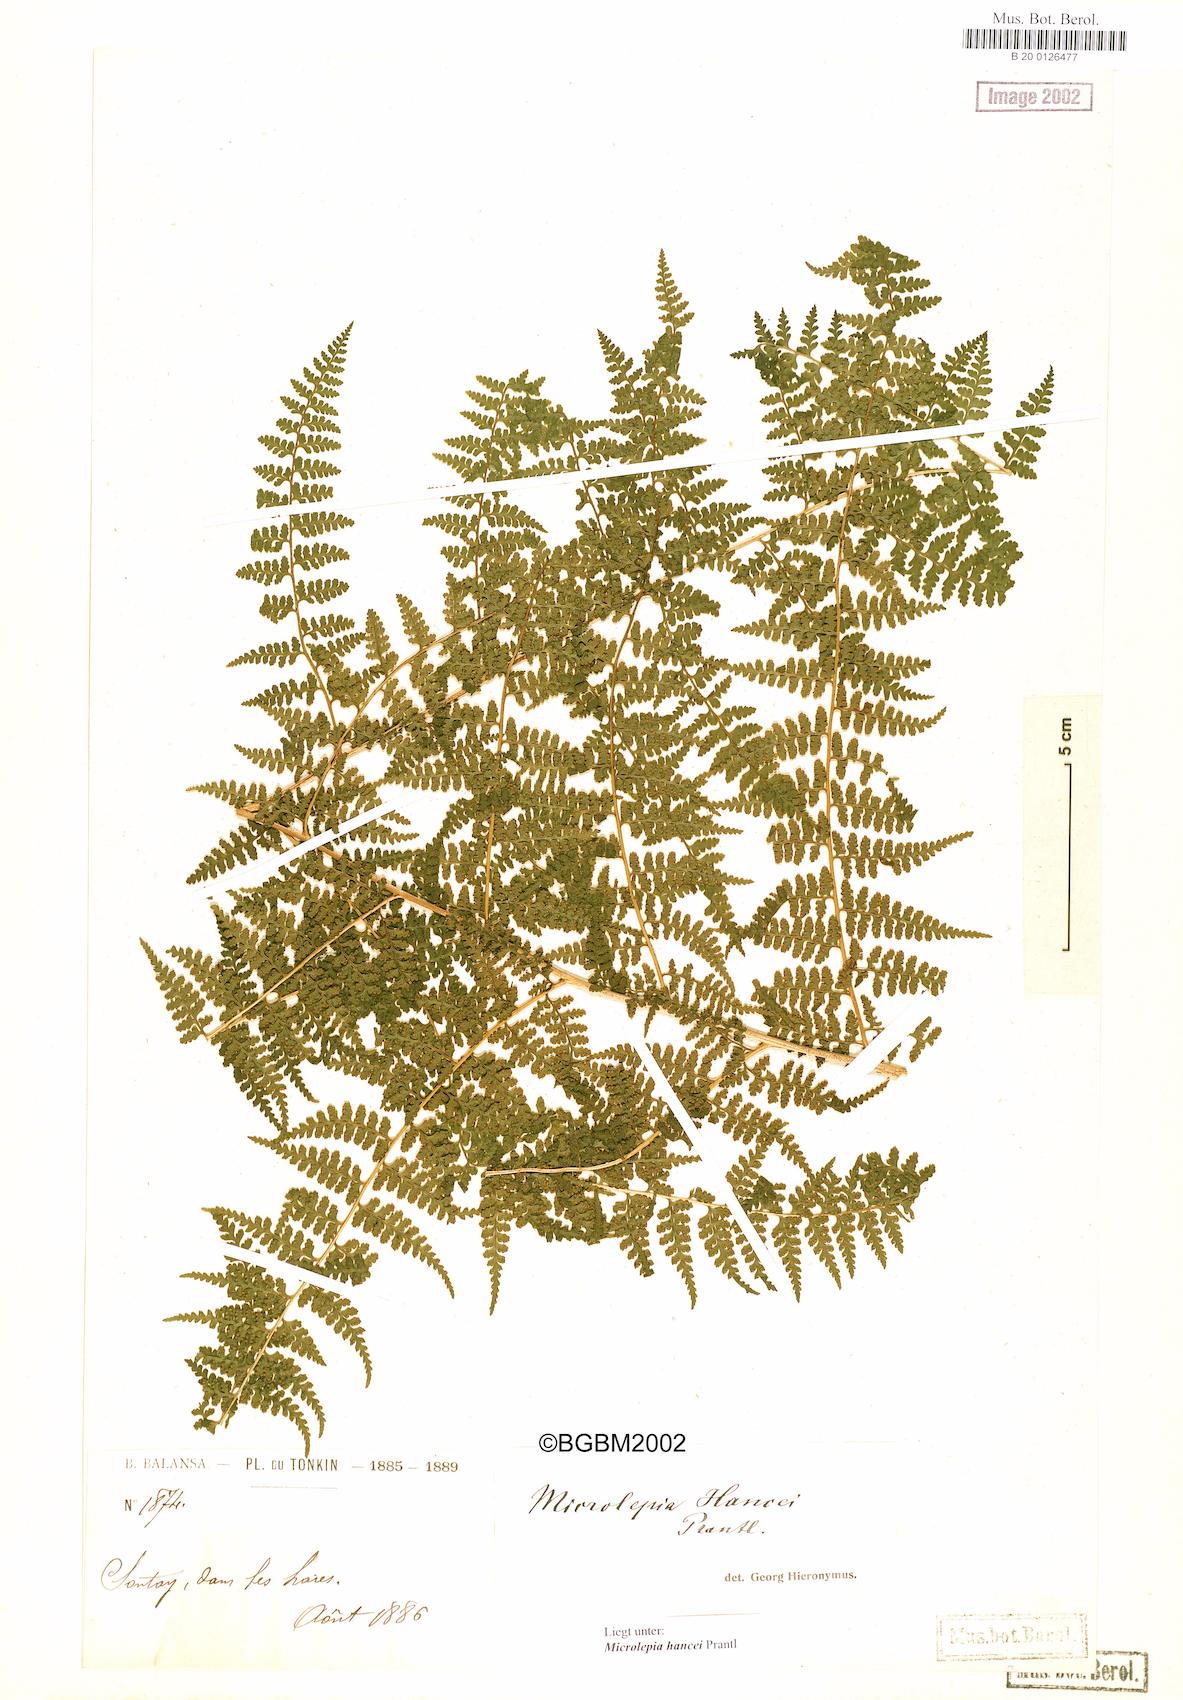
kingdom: Plantae
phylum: Tracheophyta
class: Polypodiopsida
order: Polypodiales
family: Dennstaedtiaceae
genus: Microlepia
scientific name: Microlepia nepalensis
